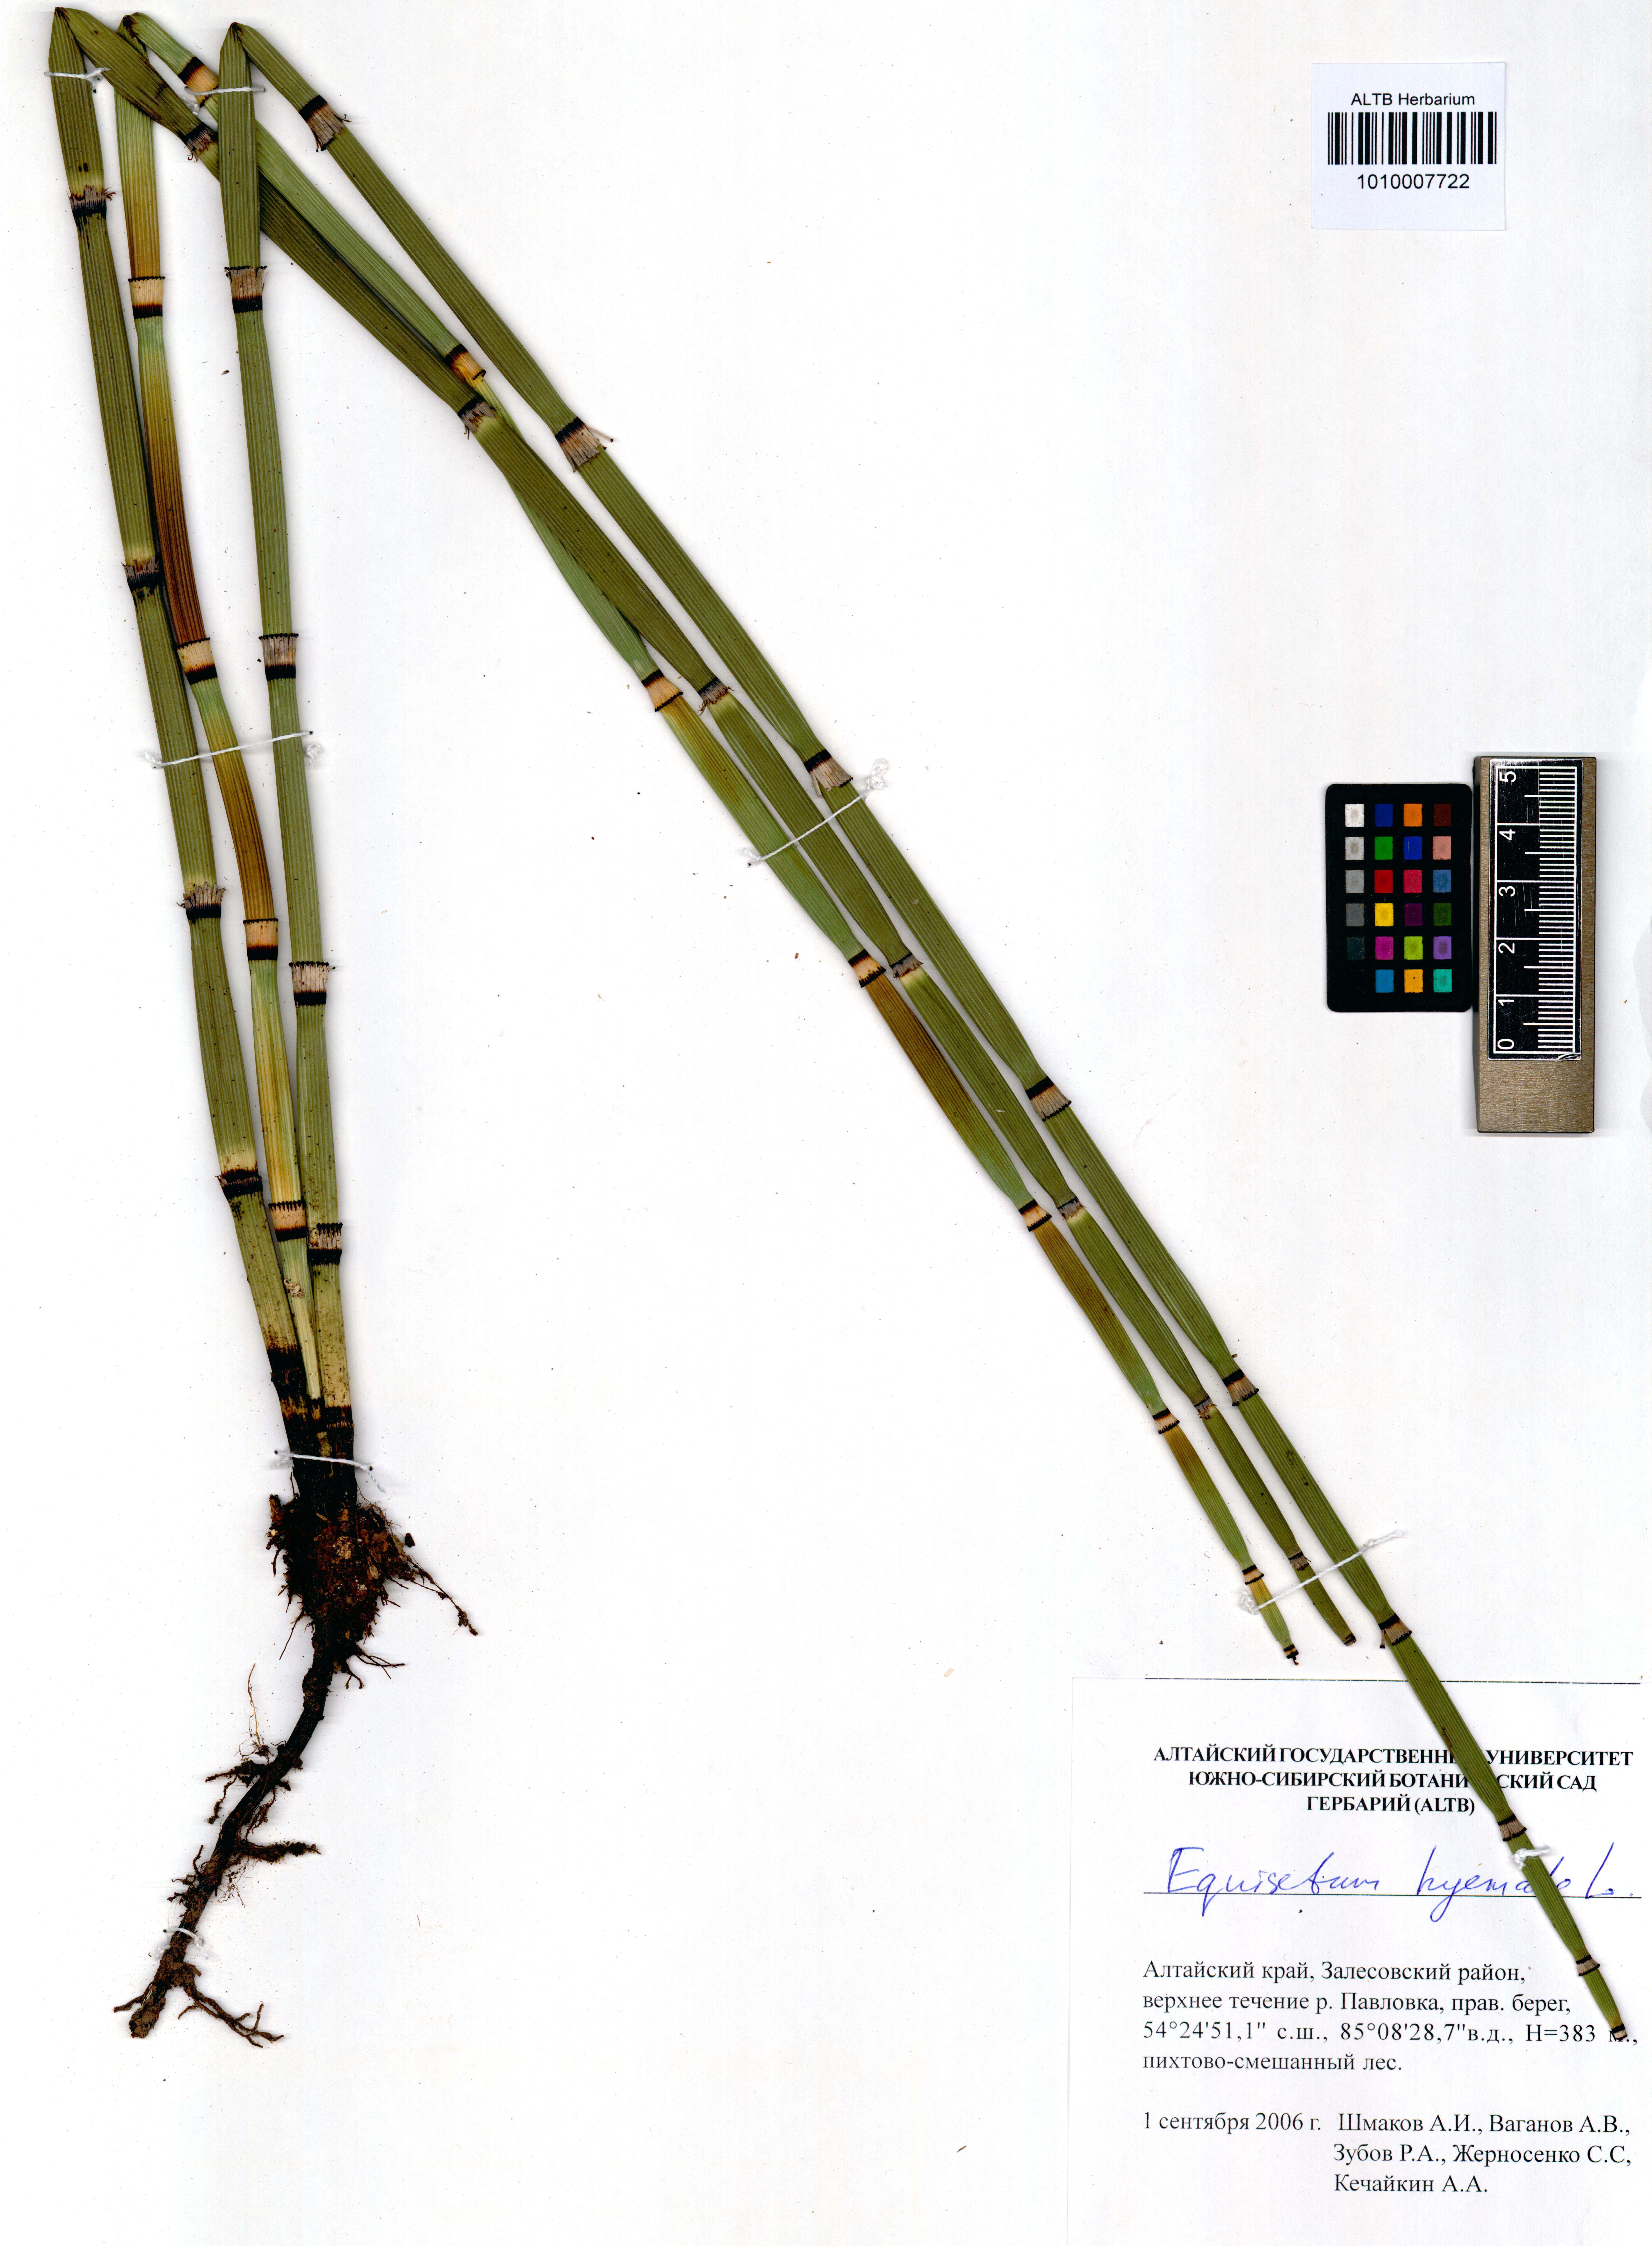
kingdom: Plantae
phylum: Tracheophyta
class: Polypodiopsida
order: Equisetales
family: Equisetaceae
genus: Equisetum
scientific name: Equisetum hyemale
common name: Rough horsetail
